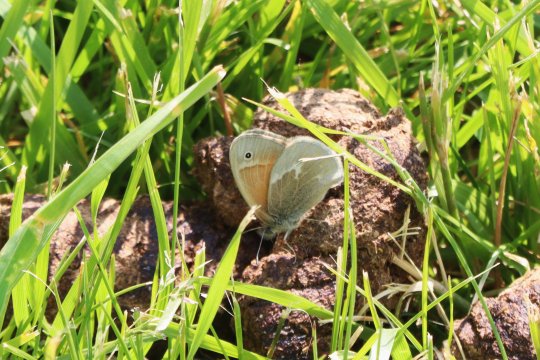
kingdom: Animalia
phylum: Arthropoda
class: Insecta
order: Lepidoptera
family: Nymphalidae
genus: Coenonympha
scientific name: Coenonympha tullia
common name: Large Heath
